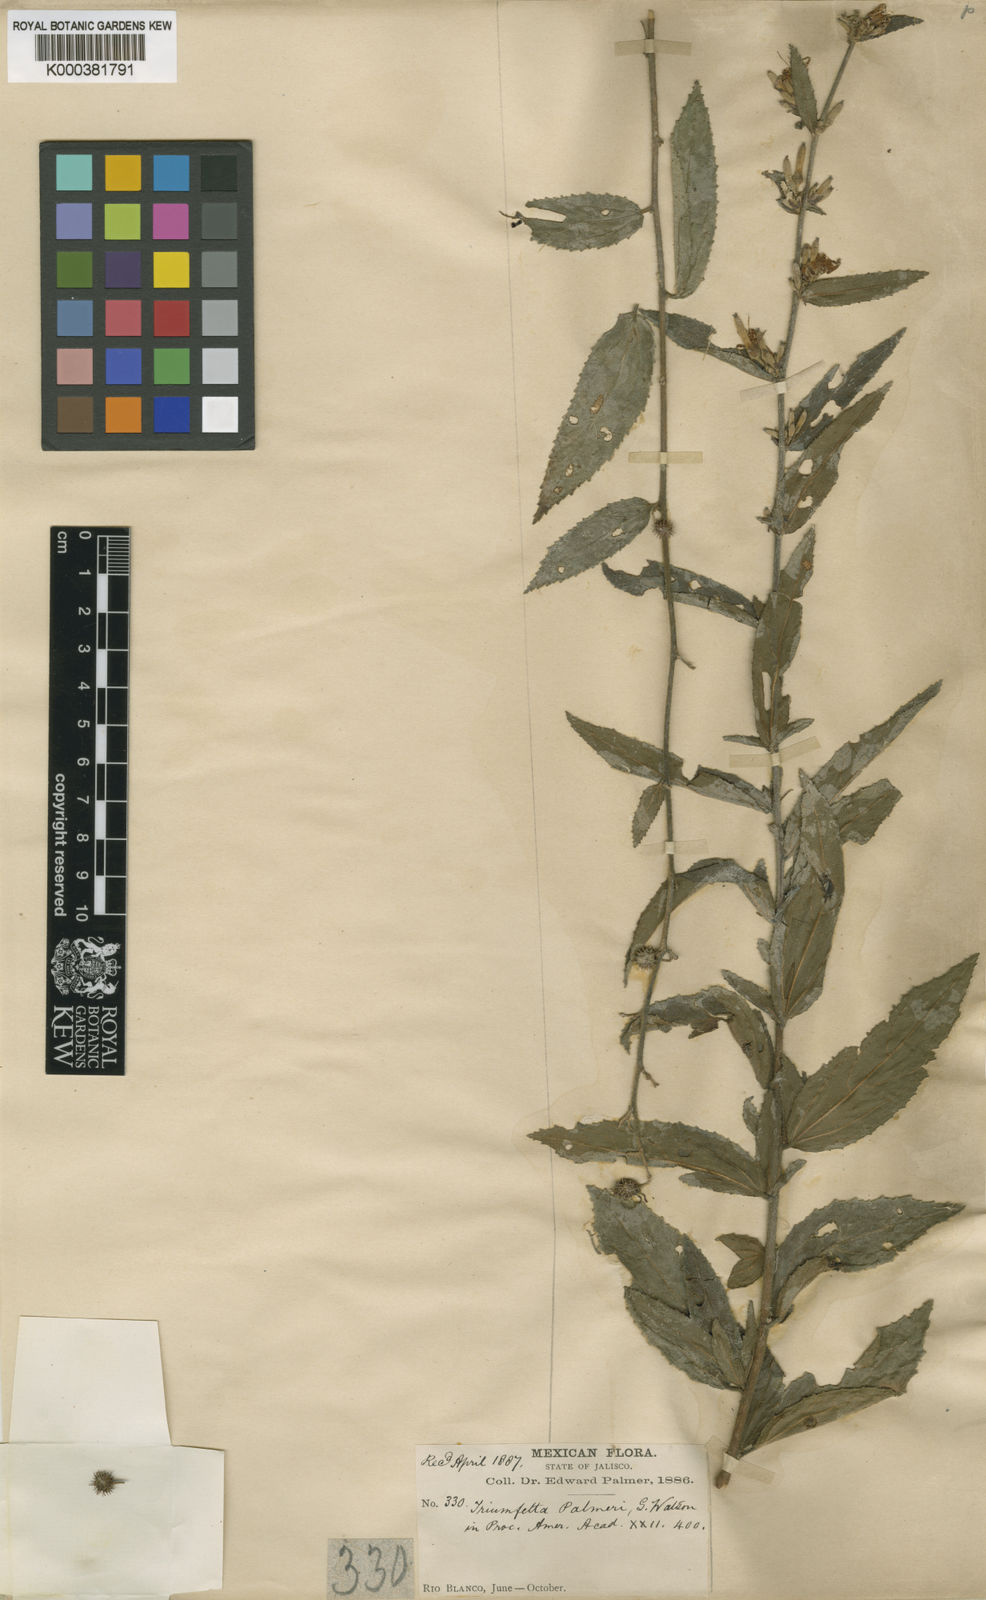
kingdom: Plantae
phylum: Tracheophyta
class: Magnoliopsida
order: Malvales
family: Malvaceae
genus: Triumfetta
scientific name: Triumfetta brevipes
